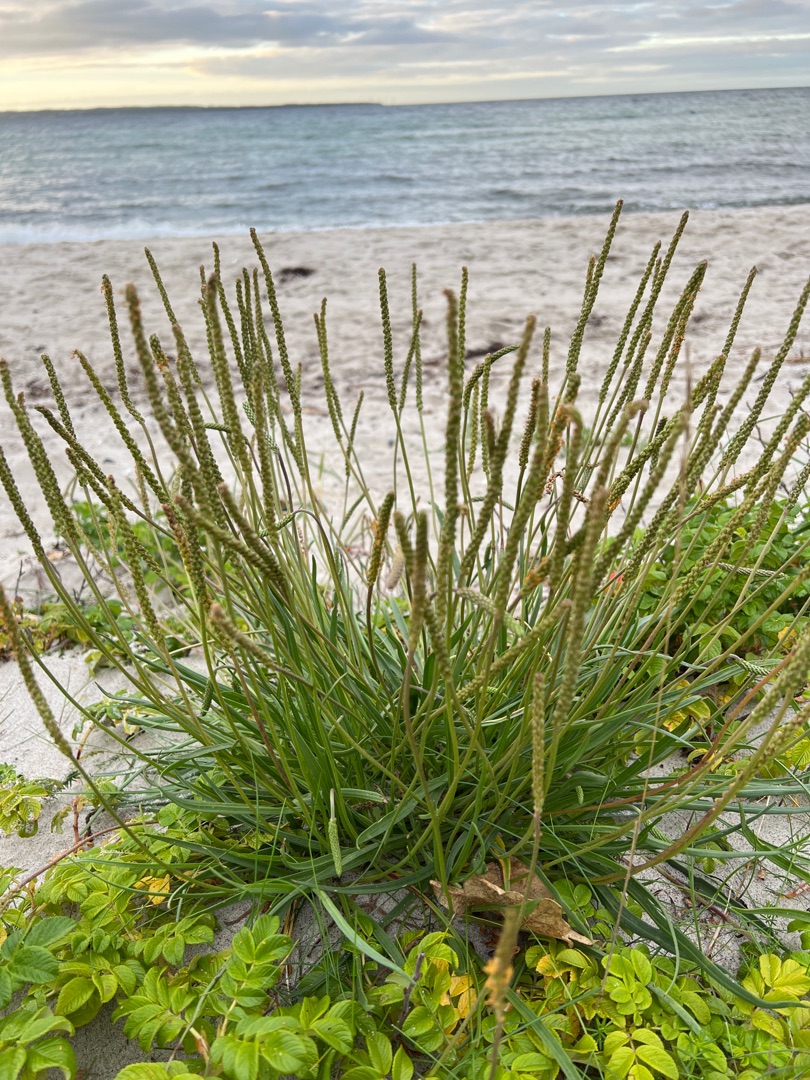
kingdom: Plantae
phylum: Tracheophyta
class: Magnoliopsida
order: Lamiales
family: Plantaginaceae
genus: Plantago
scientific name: Plantago maritima
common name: Strand-vejbred
